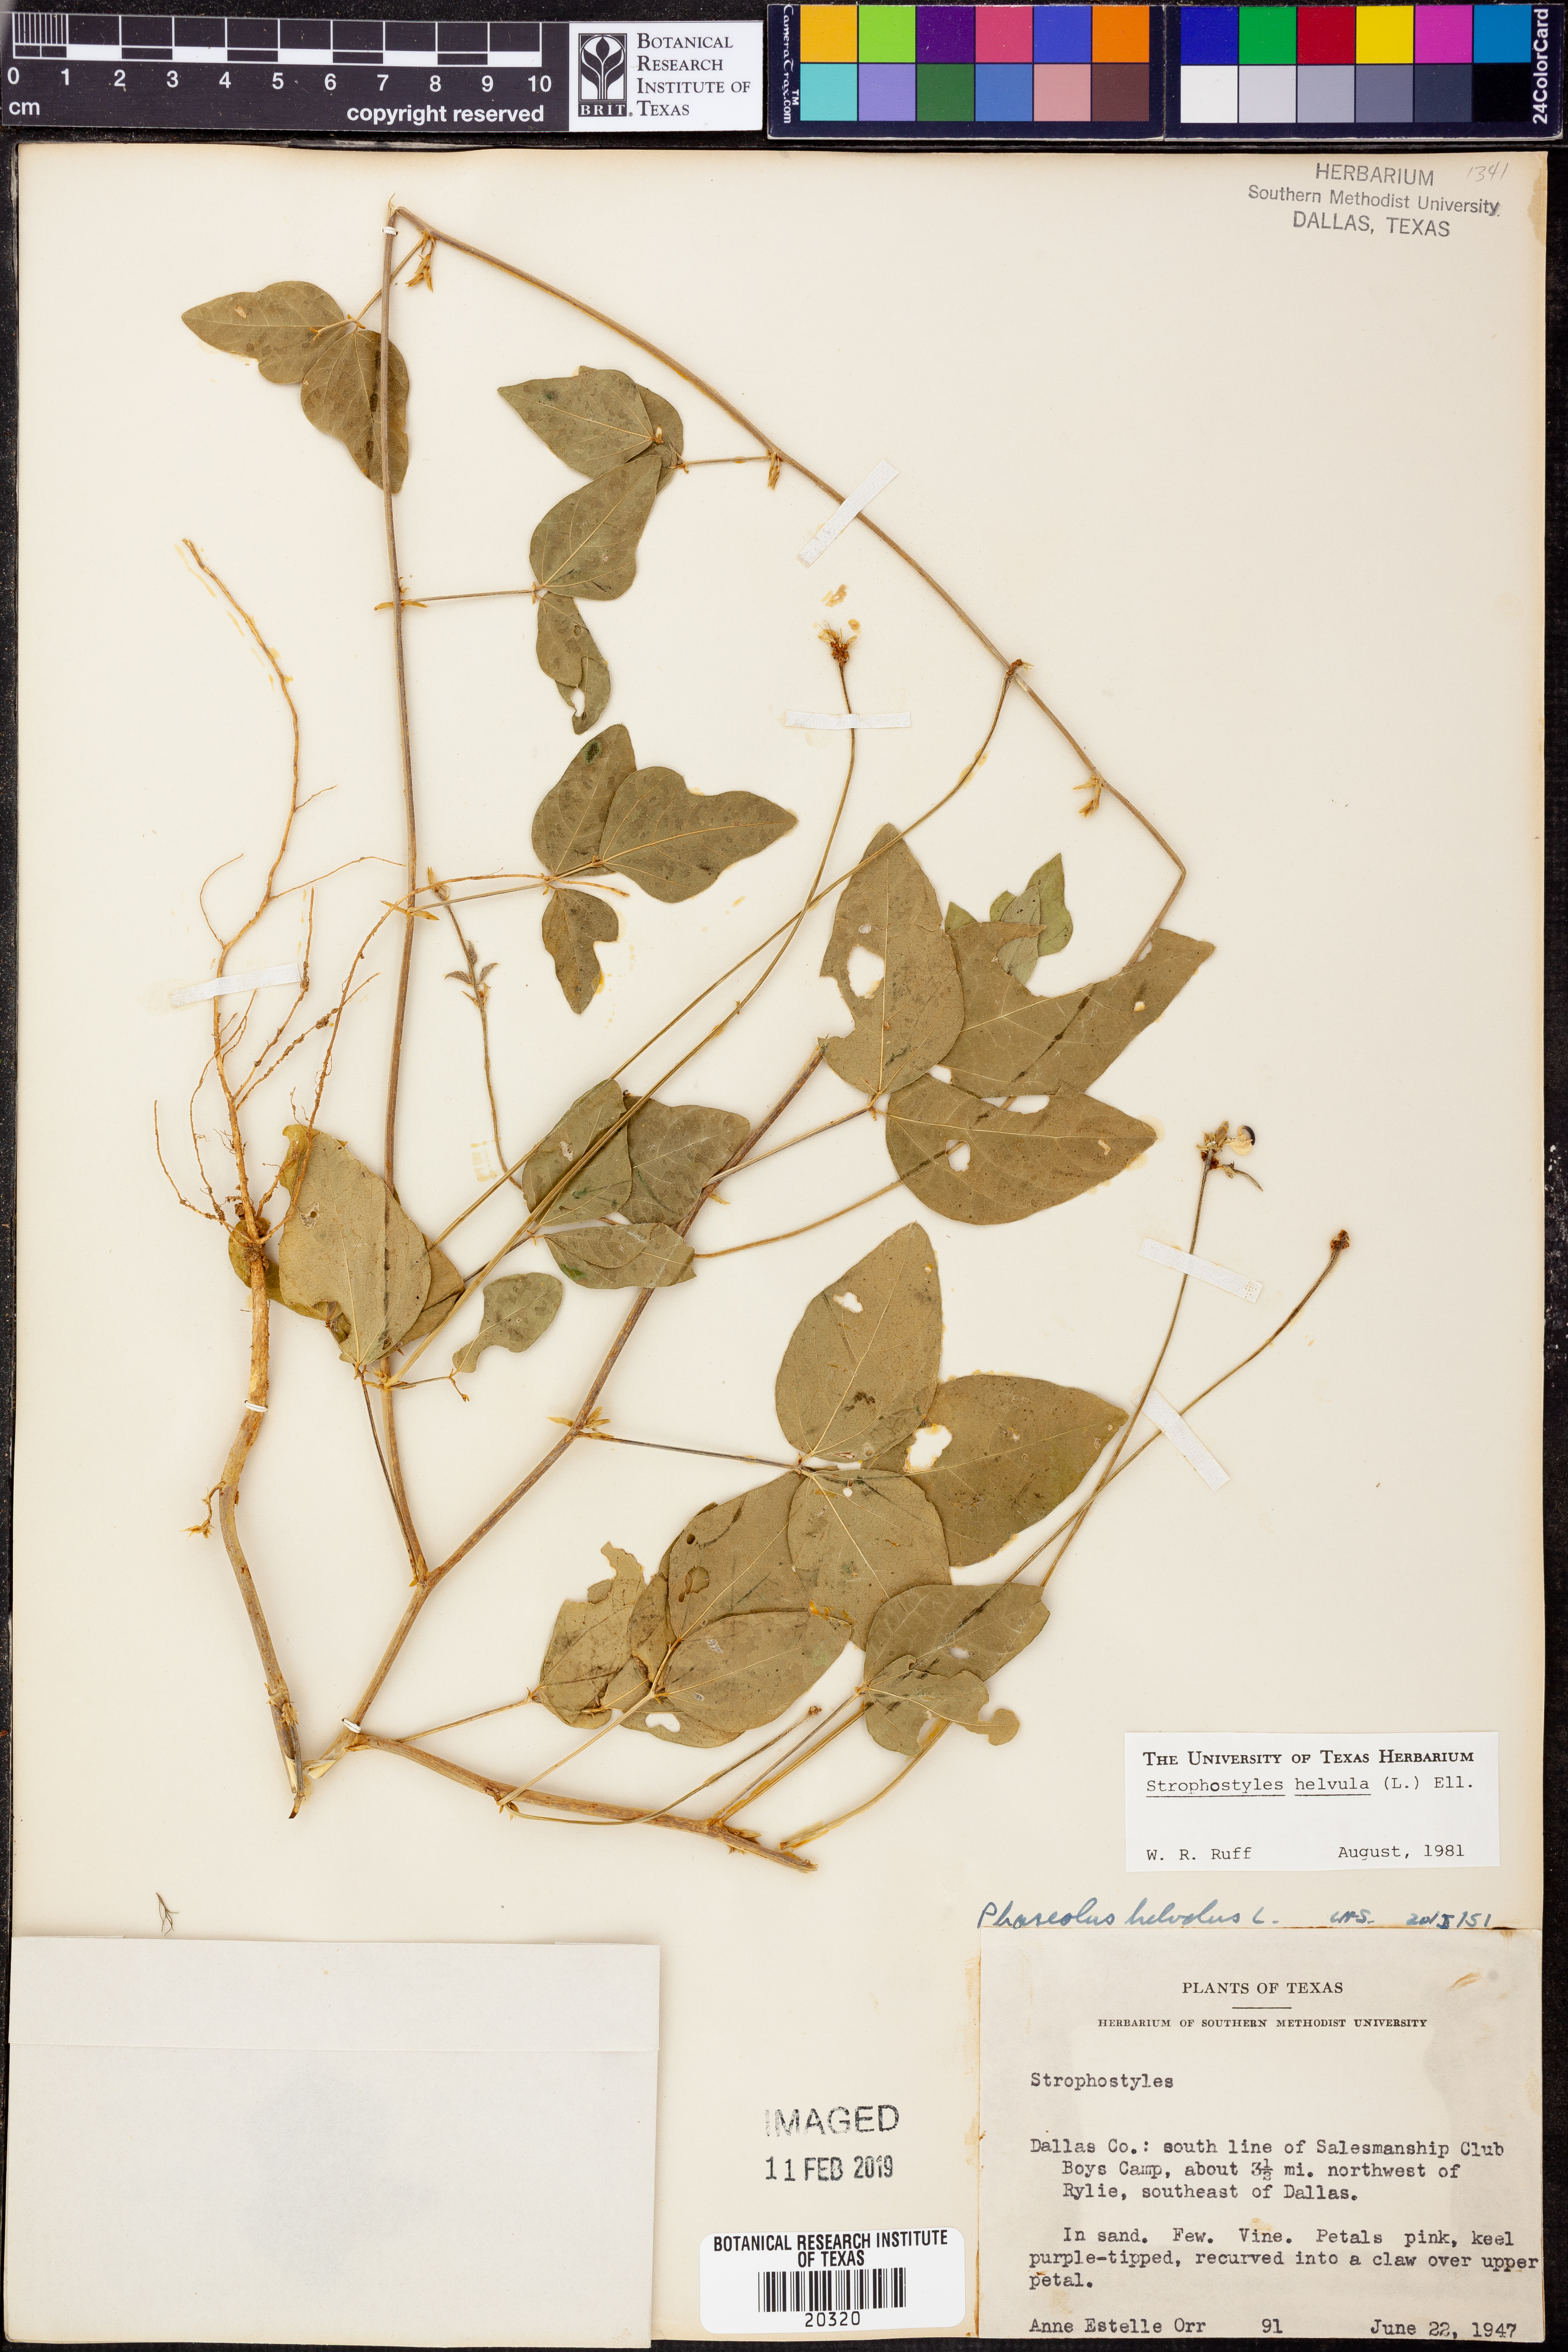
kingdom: Plantae
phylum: Tracheophyta
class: Magnoliopsida
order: Fabales
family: Fabaceae
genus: Strophostyles
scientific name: Strophostyles helvula
